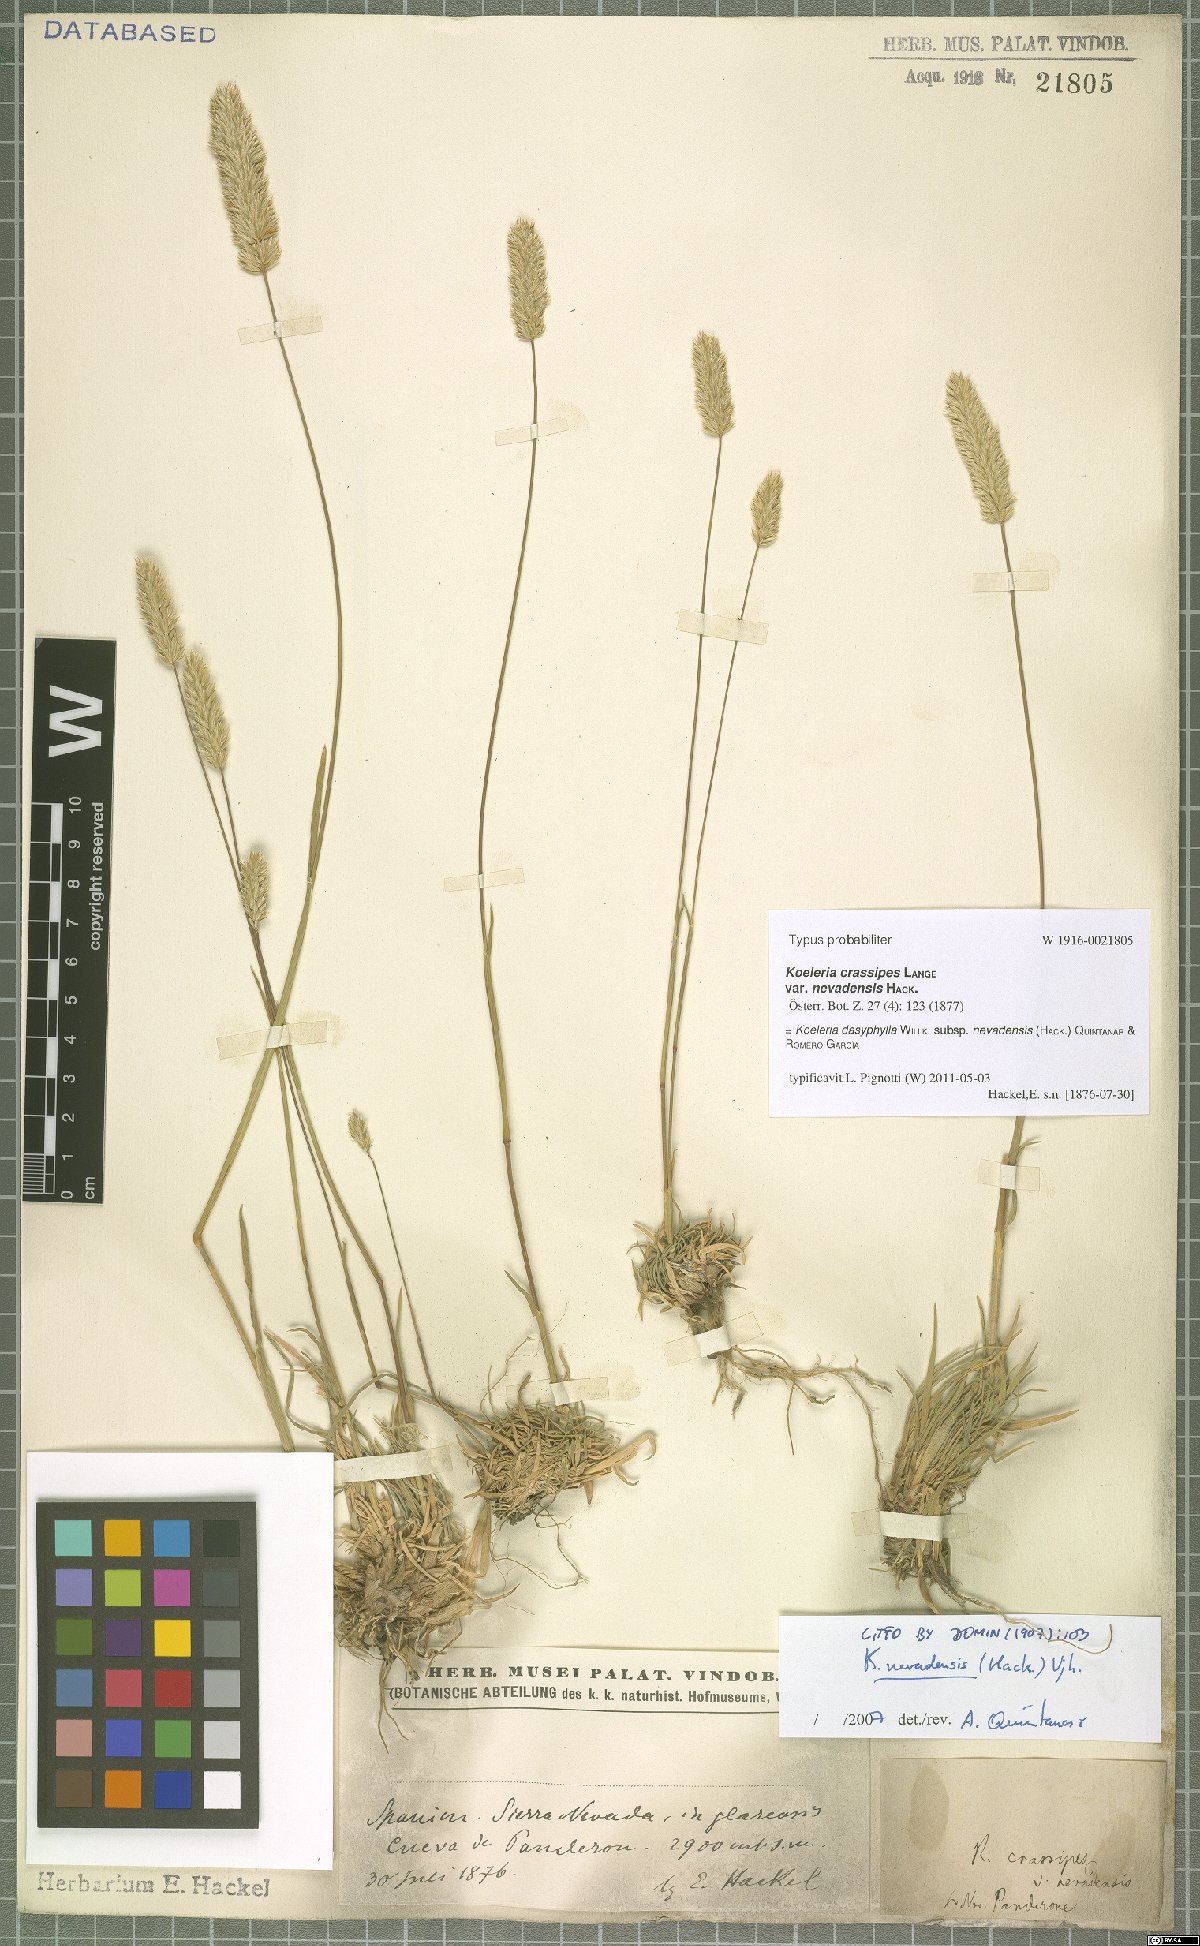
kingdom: Plantae
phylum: Tracheophyta
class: Liliopsida
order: Poales
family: Poaceae
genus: Koeleria
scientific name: Koeleria crassipes
